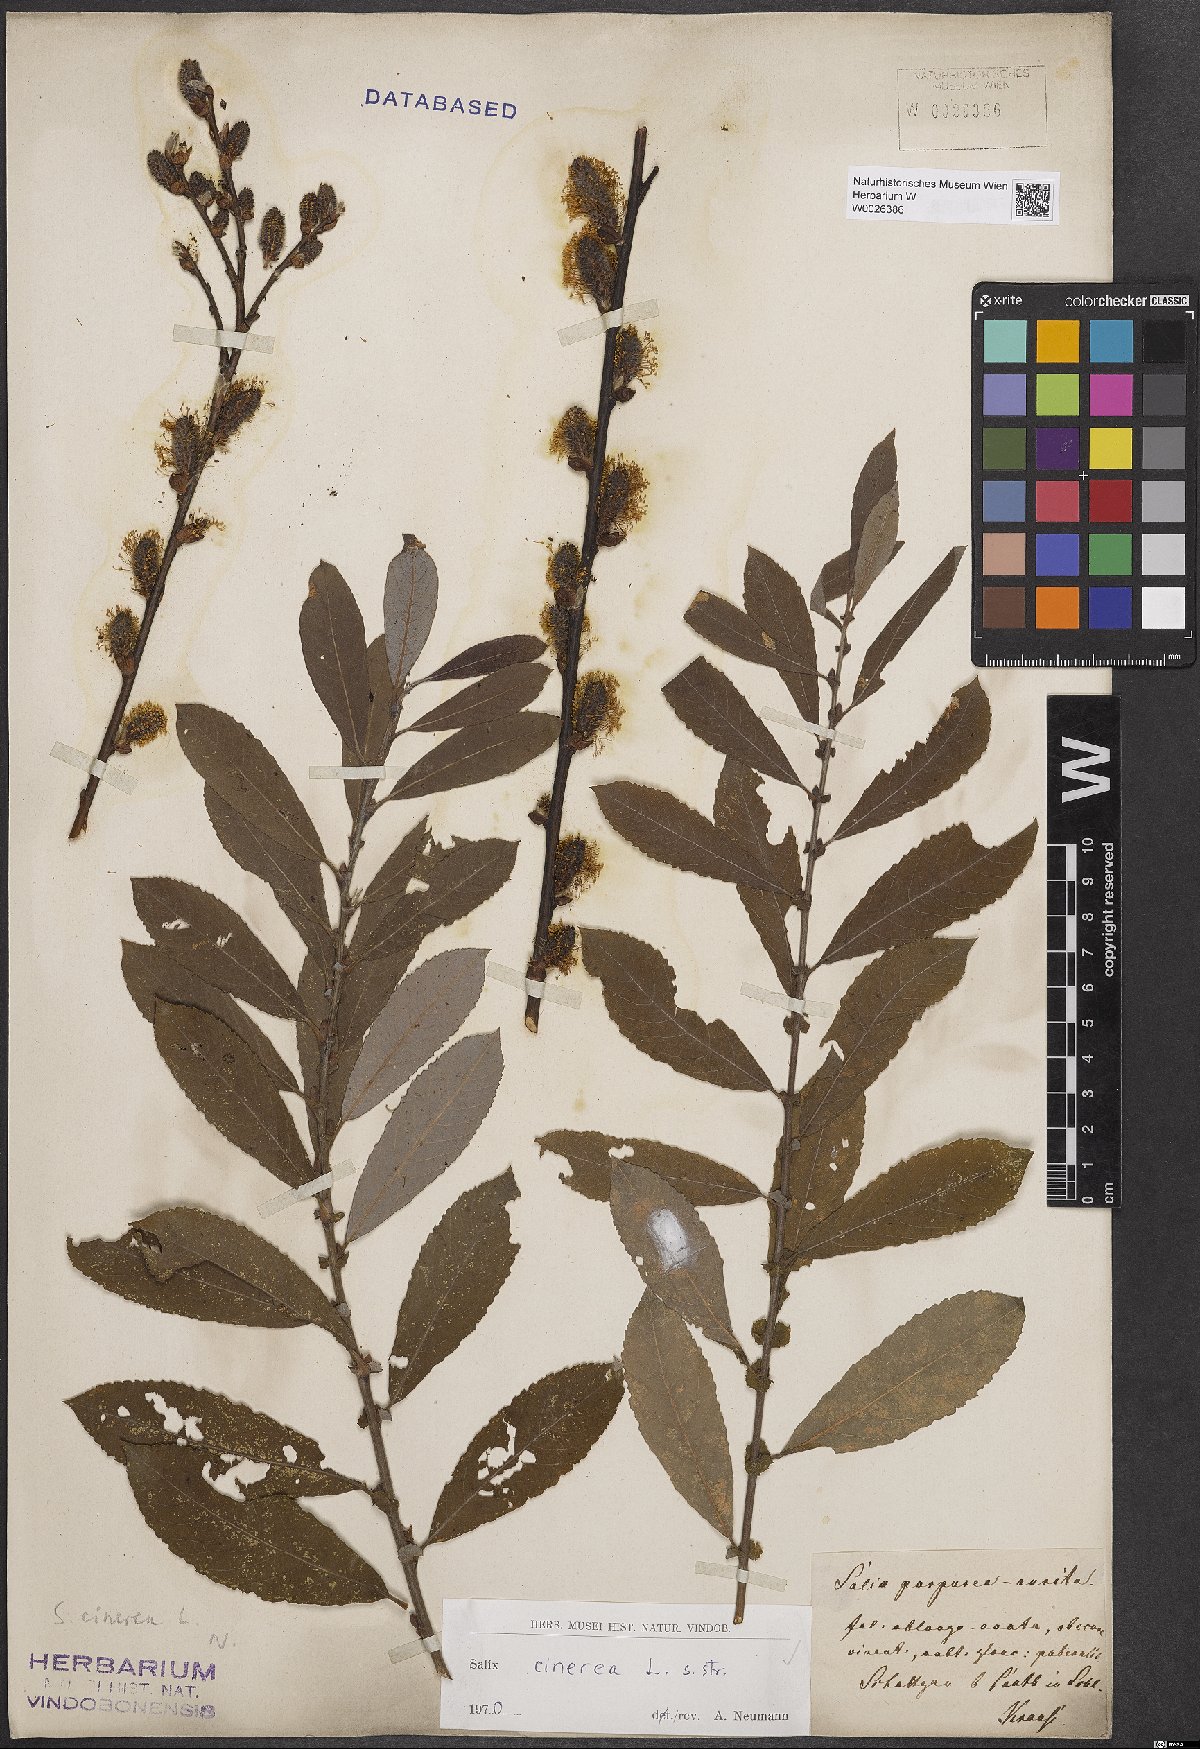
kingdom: Plantae
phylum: Tracheophyta
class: Magnoliopsida
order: Malpighiales
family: Salicaceae
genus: Salix
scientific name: Salix cinerea
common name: Common sallow
